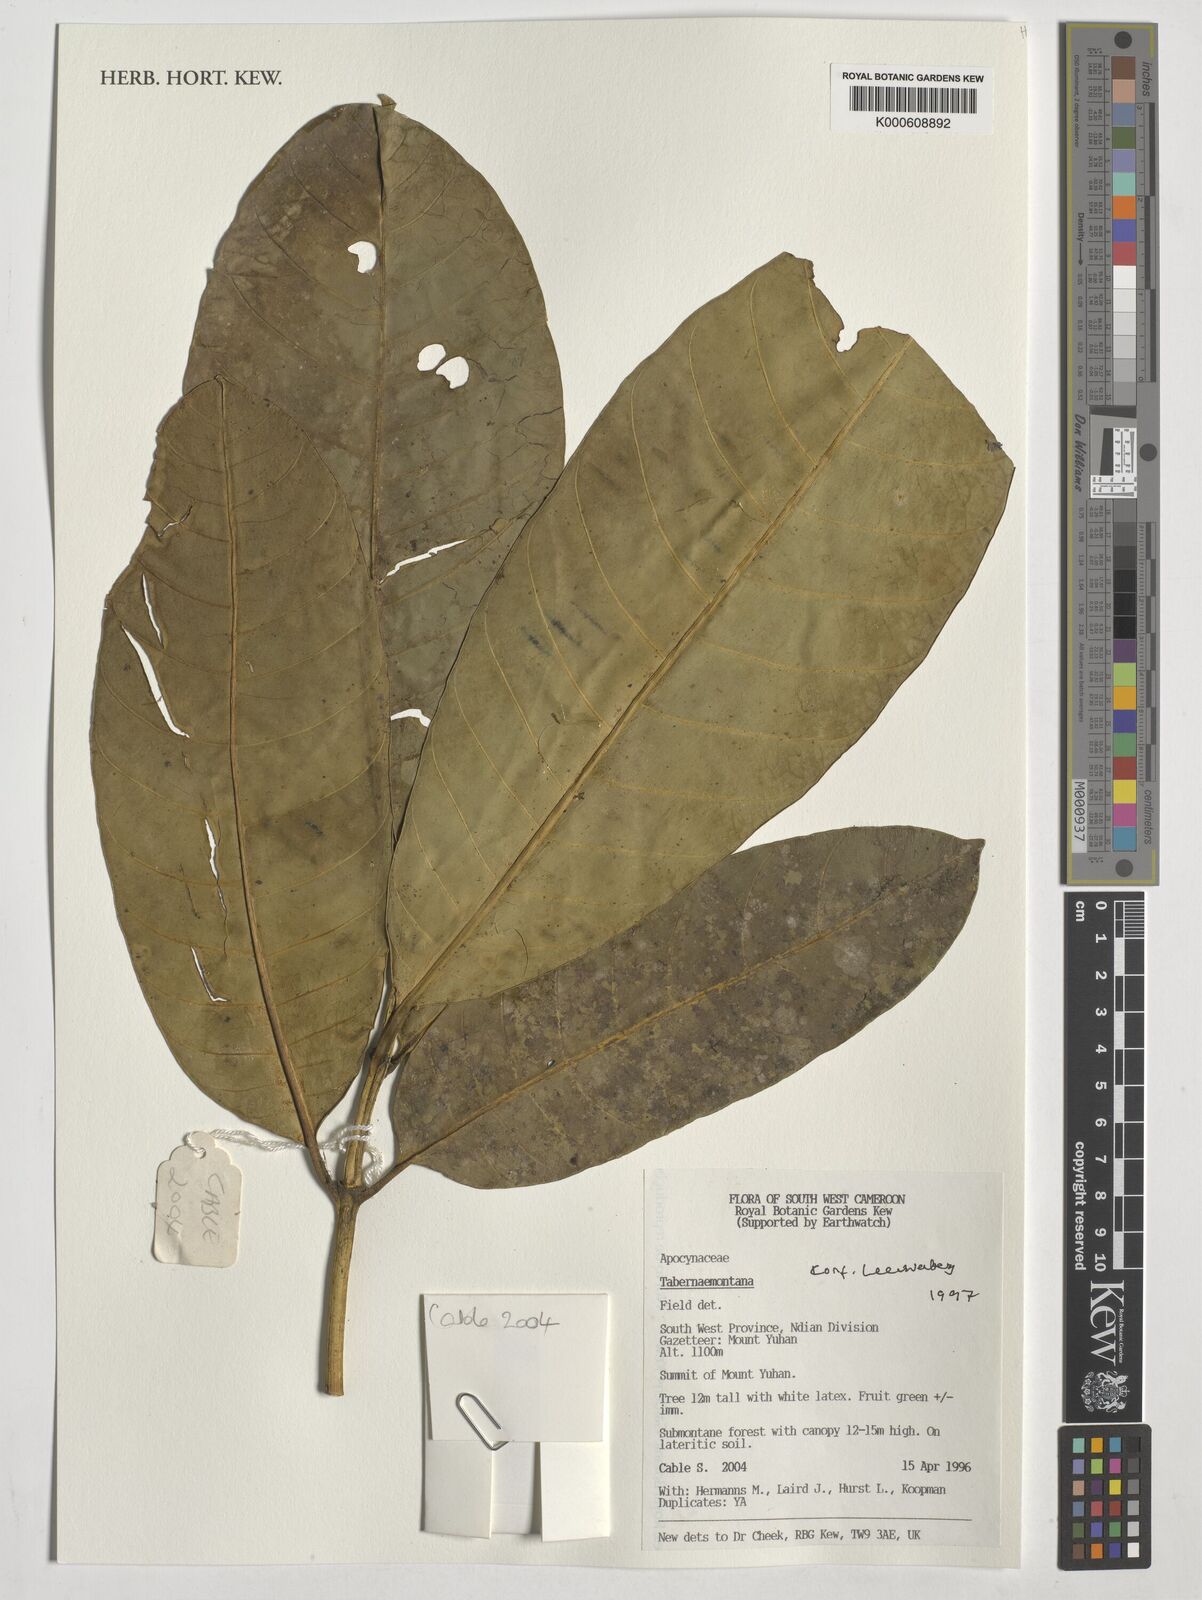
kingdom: Plantae
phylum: Tracheophyta
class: Magnoliopsida
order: Gentianales
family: Apocynaceae
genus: Tabernaemontana
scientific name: Tabernaemontana
